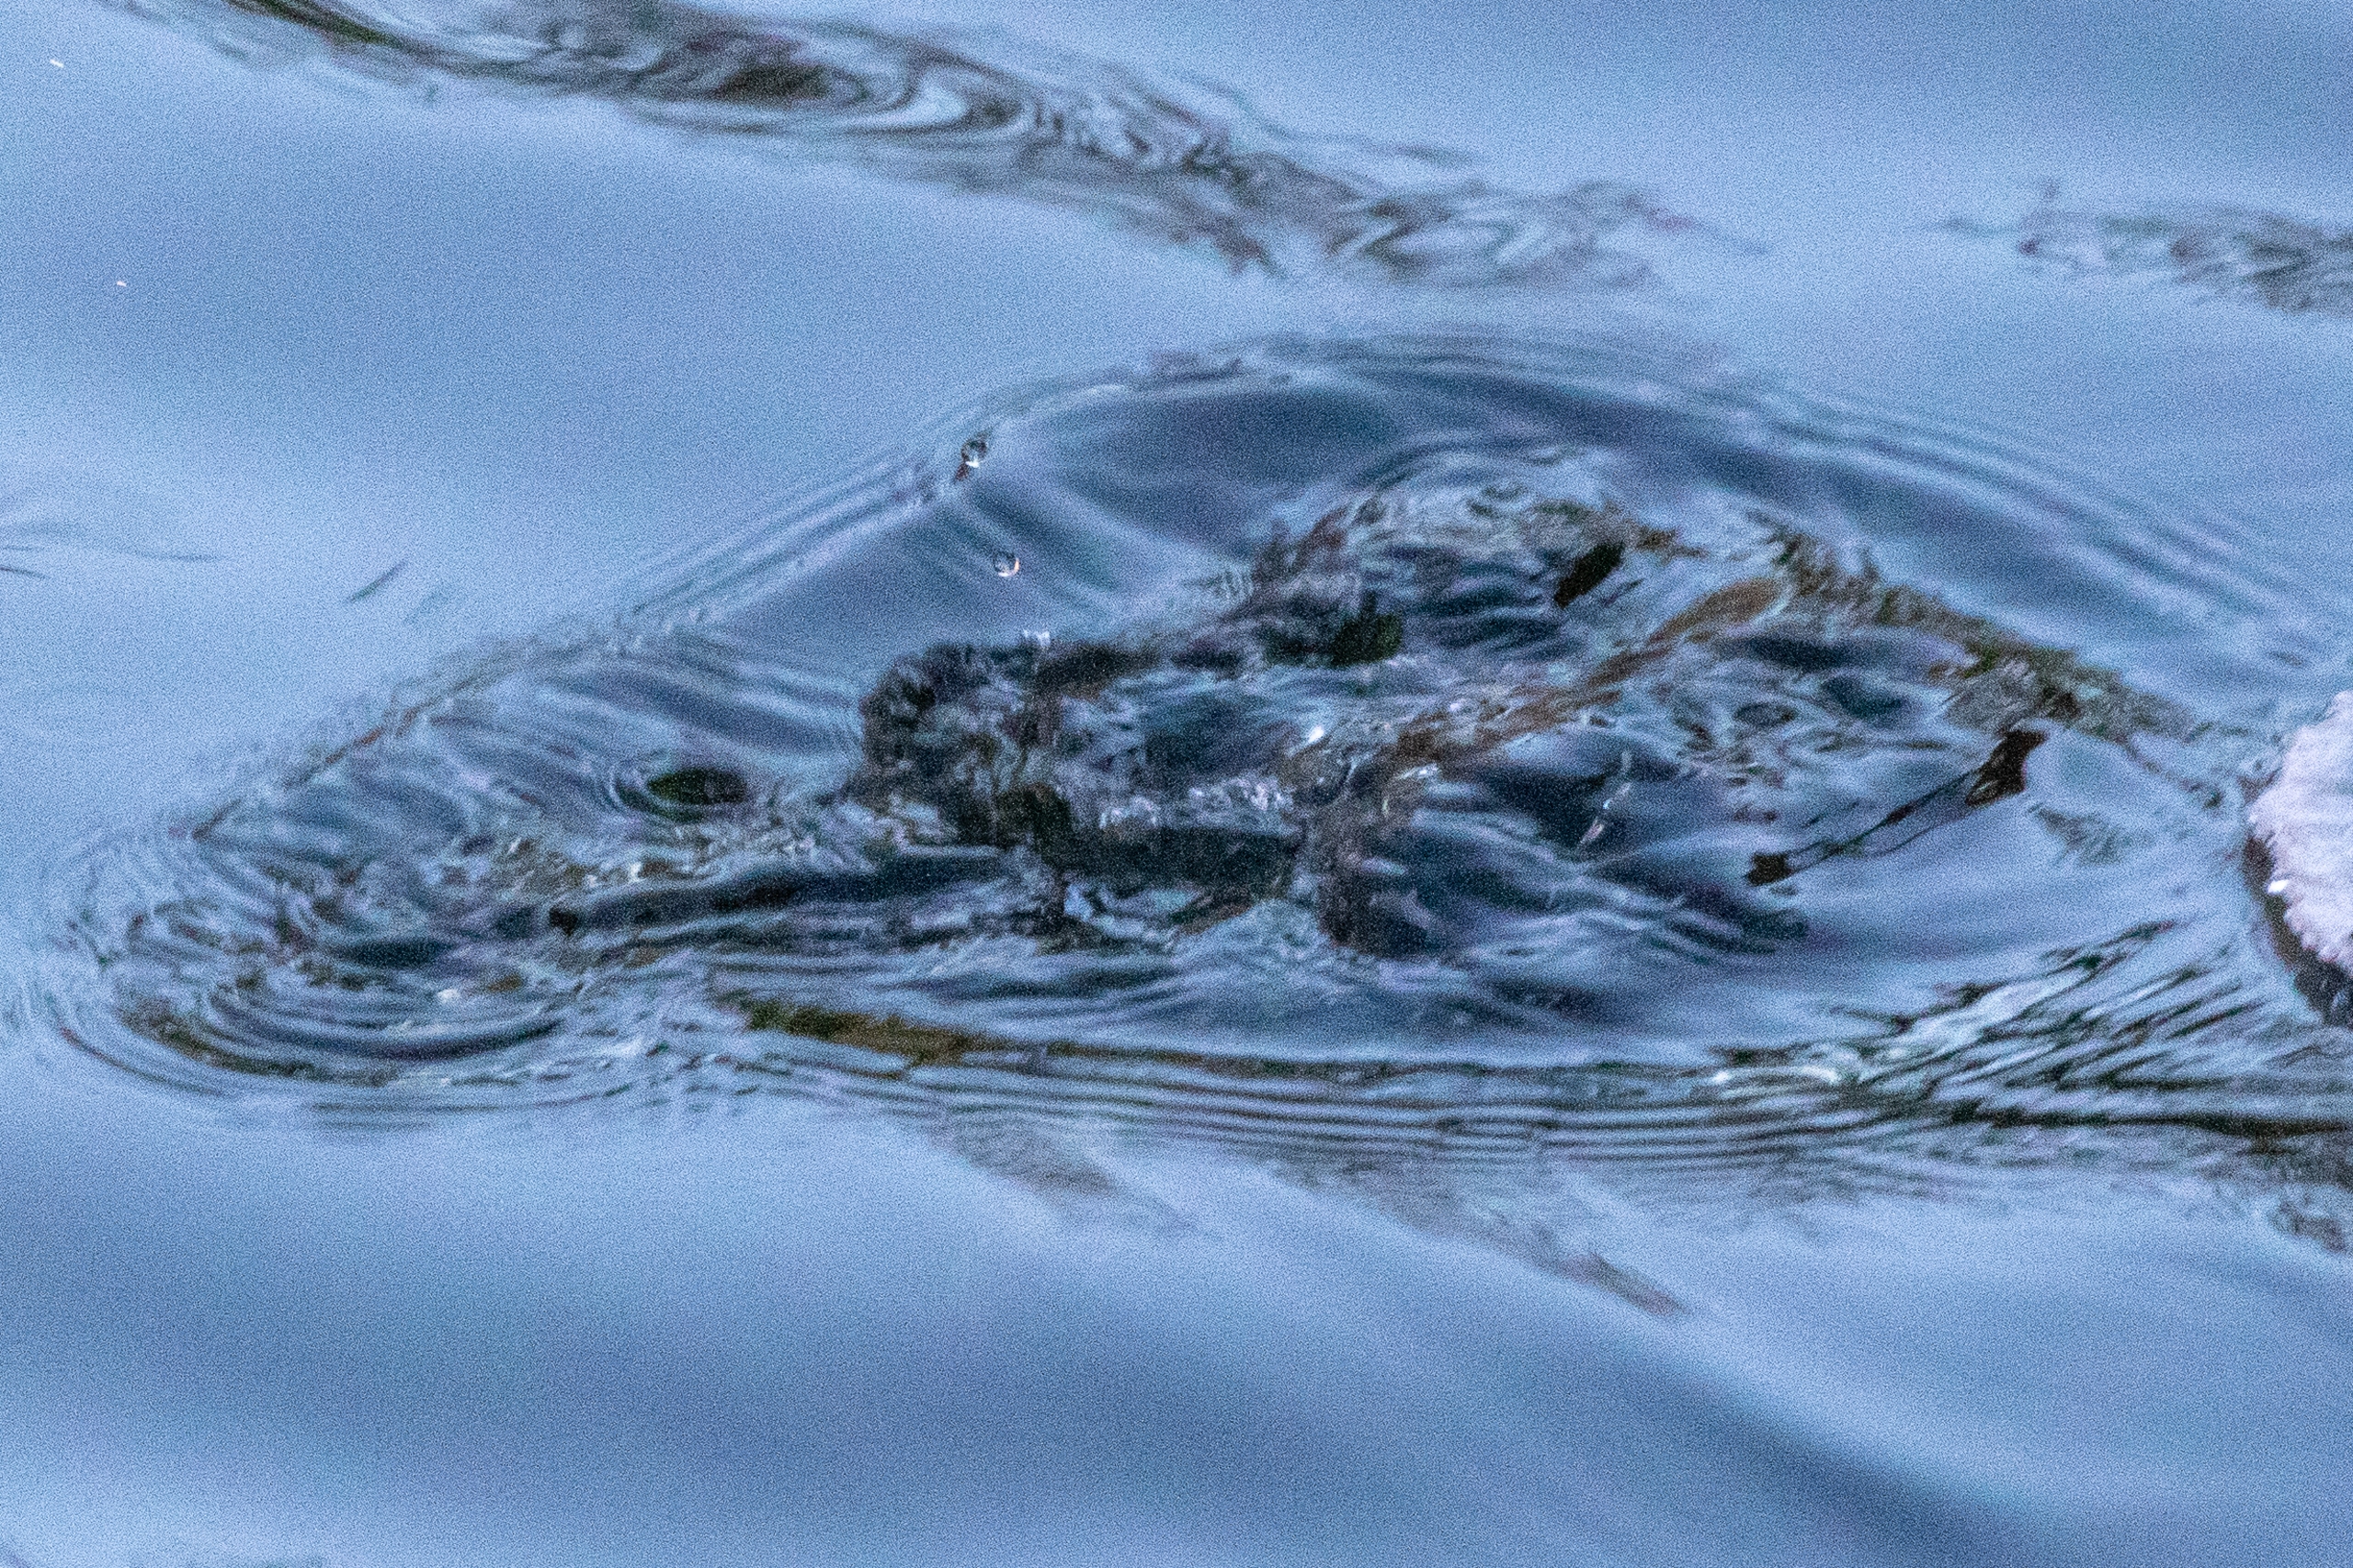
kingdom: Animalia
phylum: Chordata
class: Aves
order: Passeriformes
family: Cinclidae
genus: Cinclus
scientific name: Cinclus cinclus
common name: Vandstær
